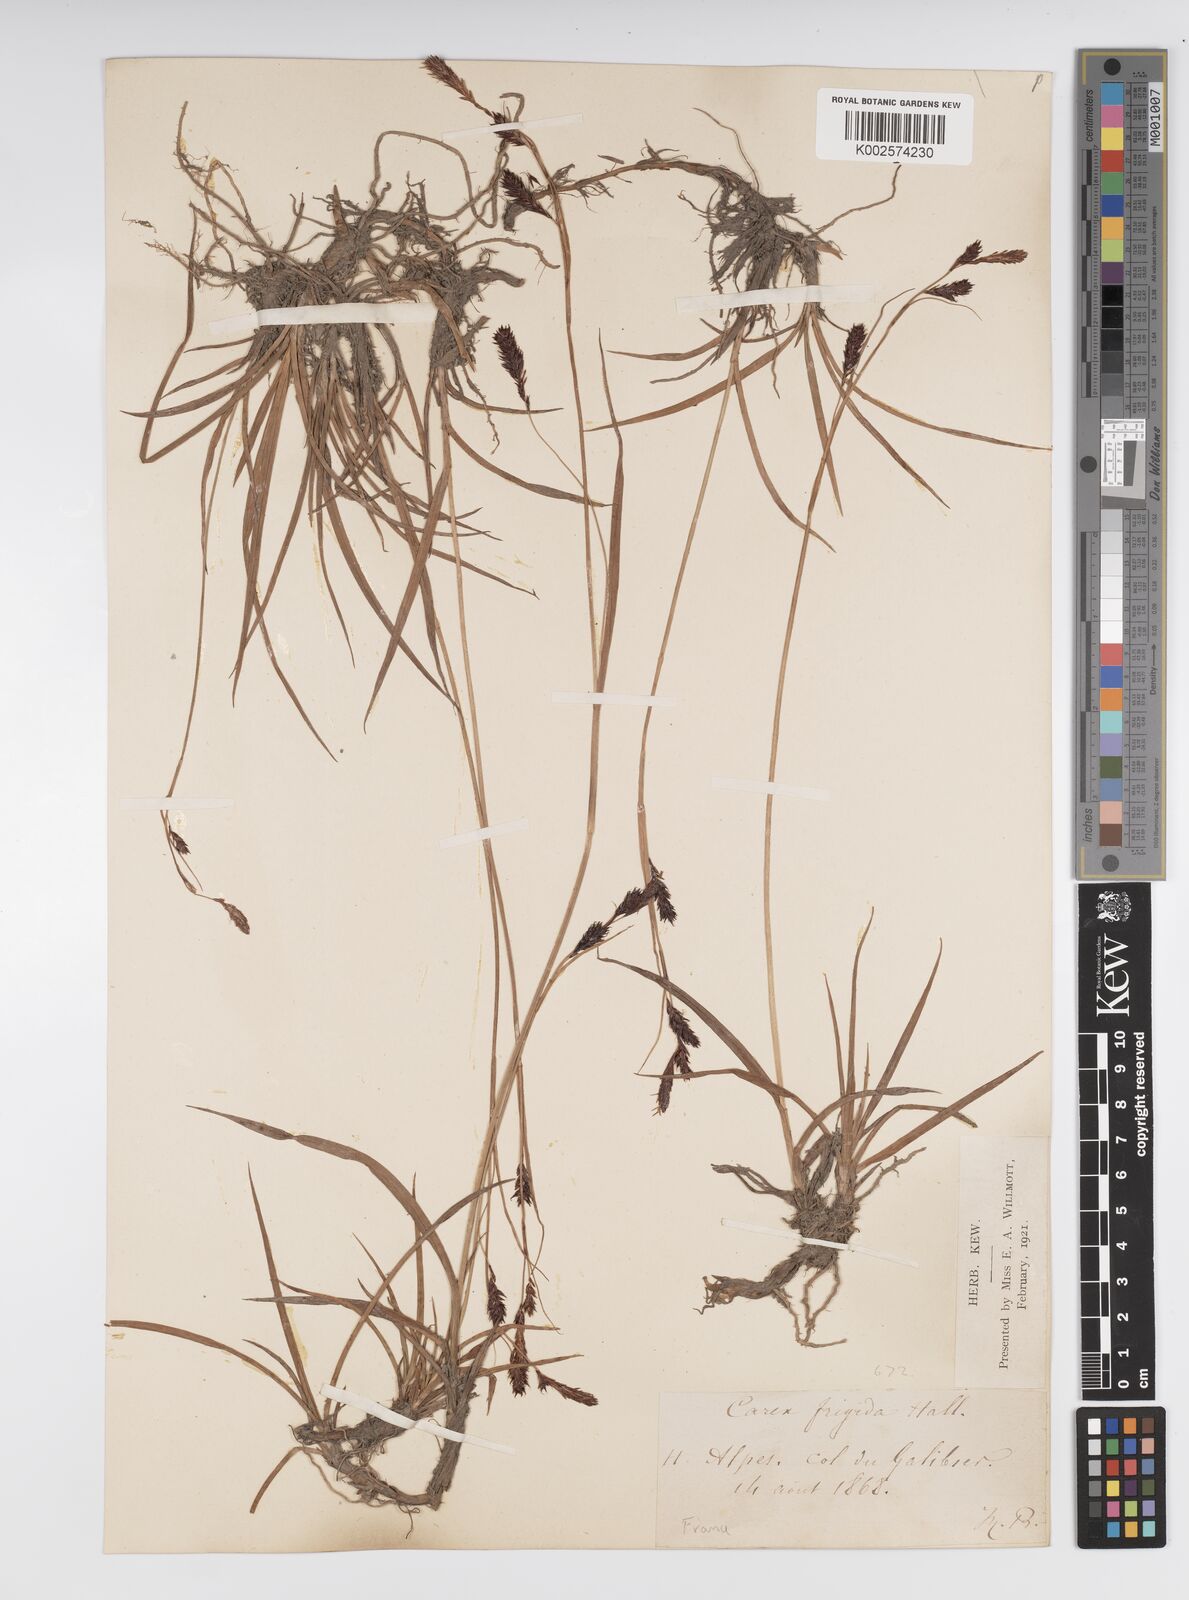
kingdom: Plantae
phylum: Tracheophyta
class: Liliopsida
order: Poales
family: Cyperaceae
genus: Carex
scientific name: Carex frigida
